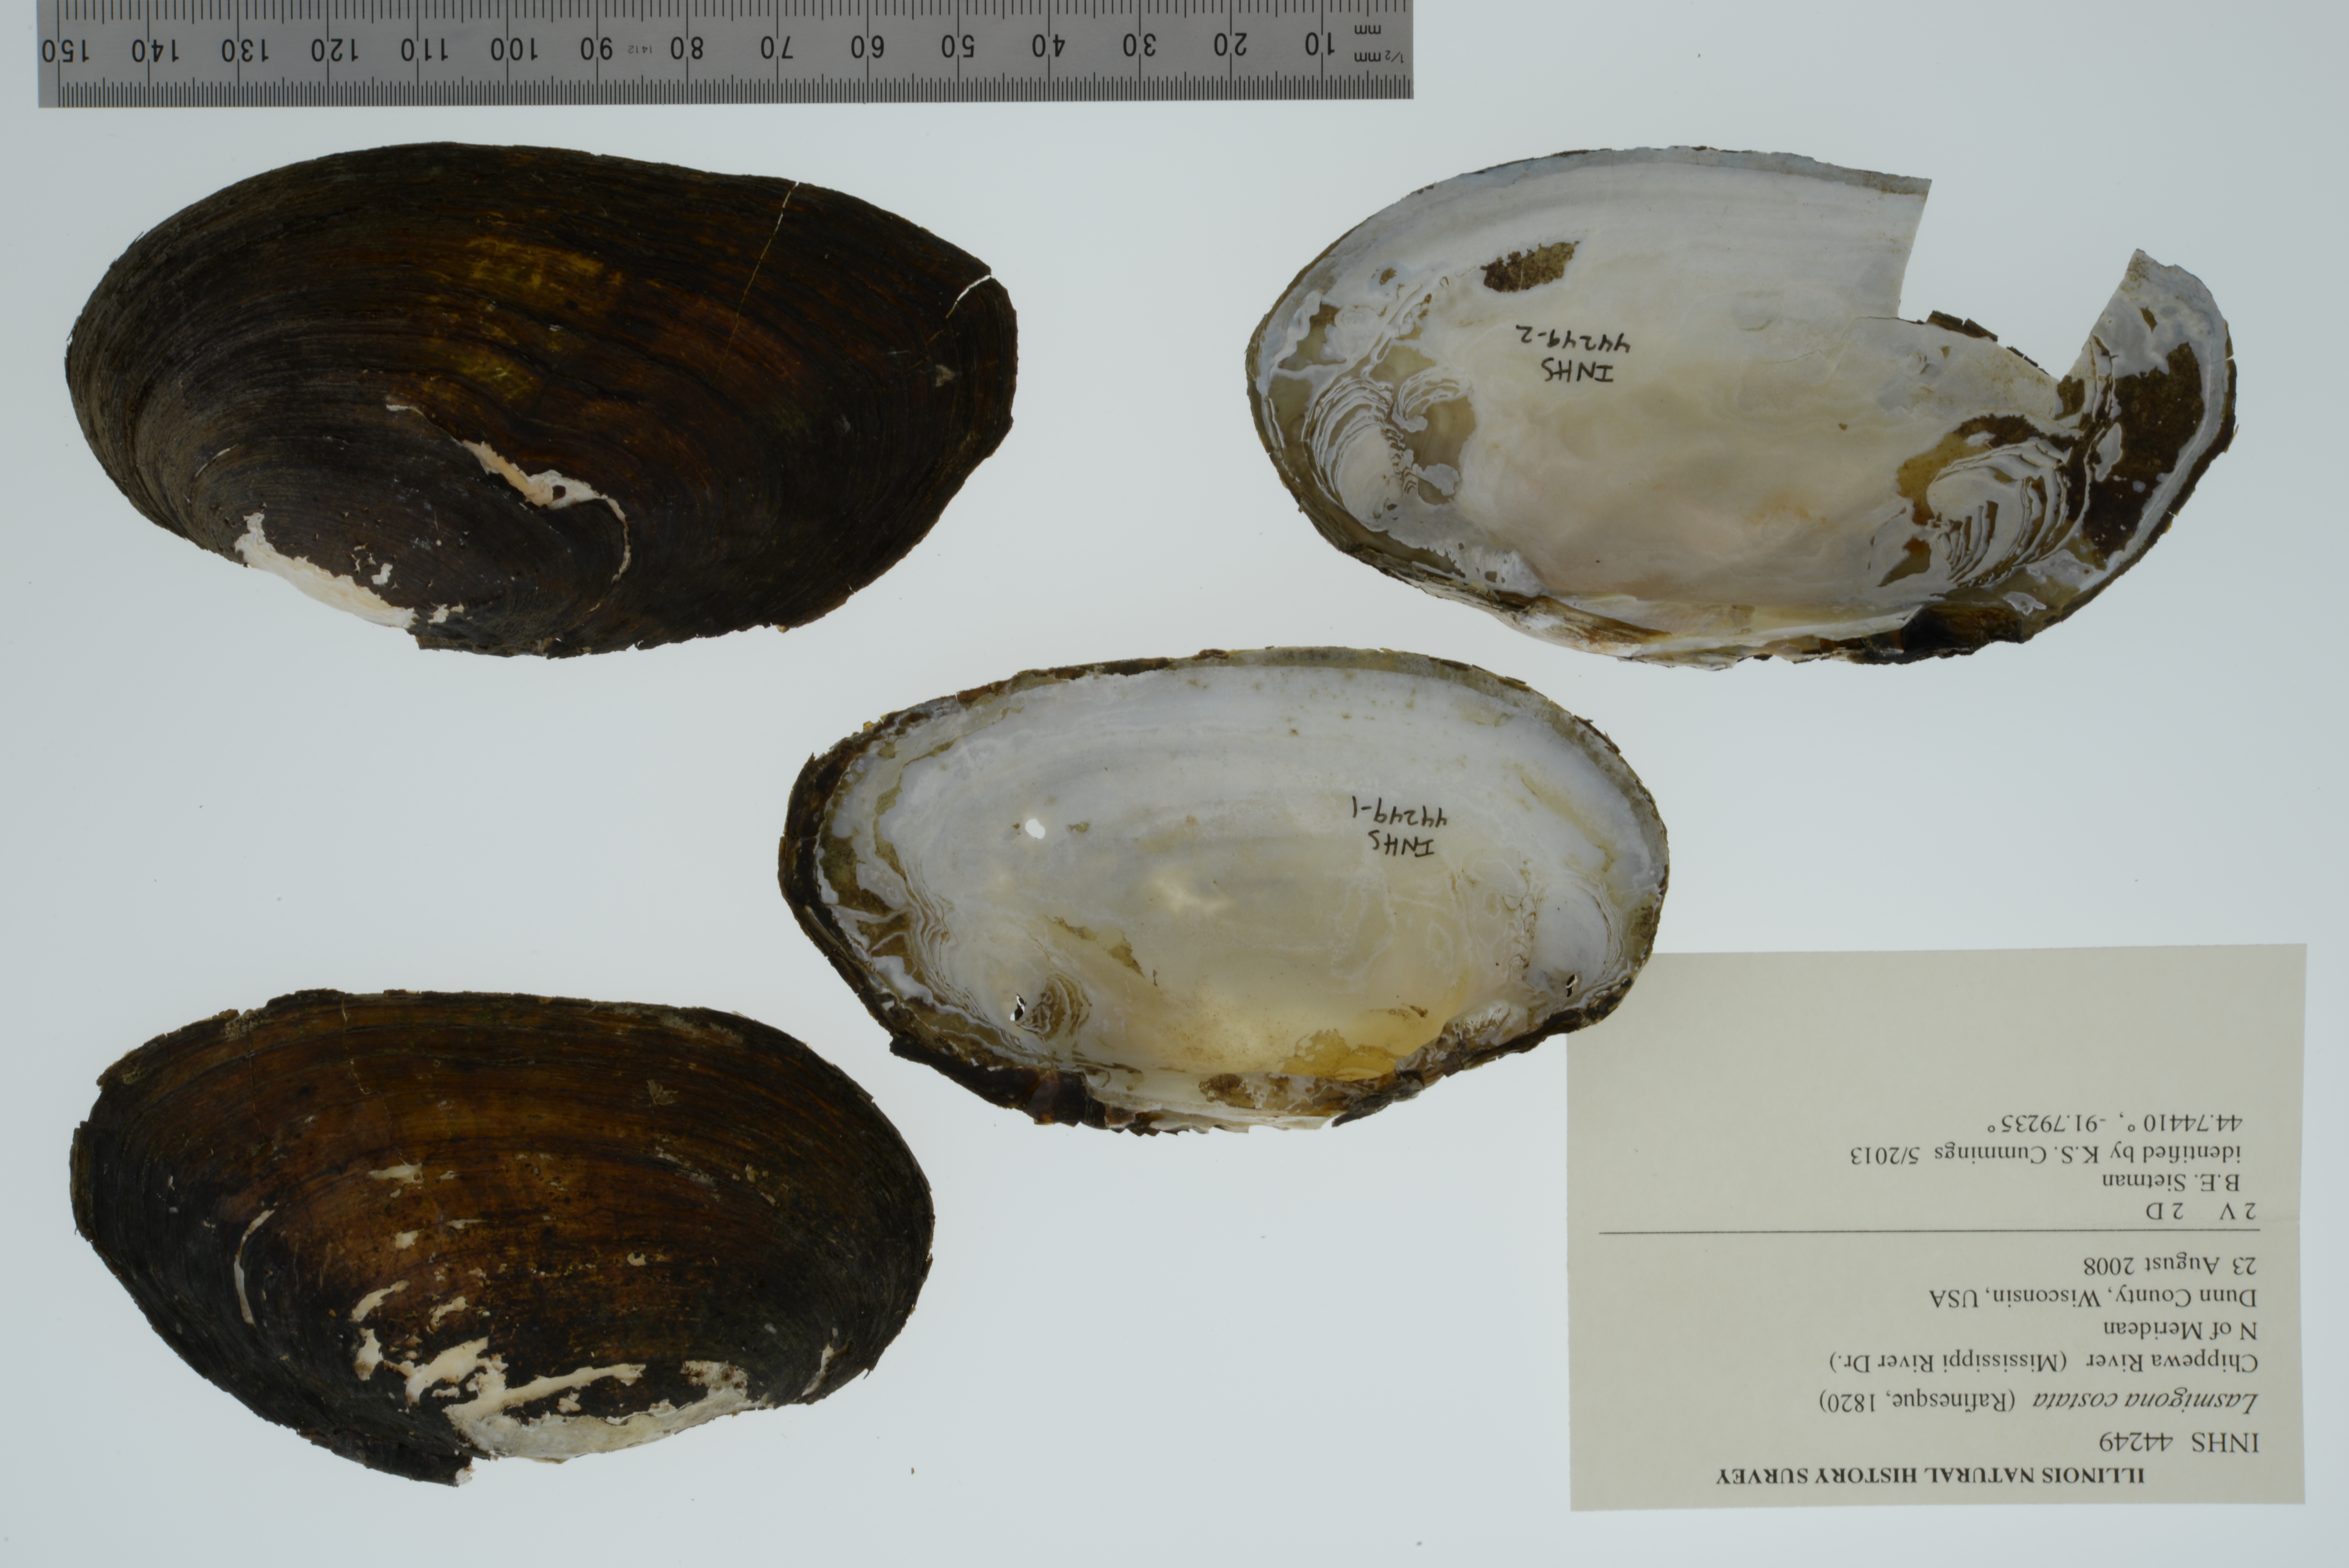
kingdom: Animalia
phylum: Mollusca
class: Bivalvia
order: Unionida
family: Unionidae
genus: Lasmigona
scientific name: Lasmigona costata
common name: Flutedshell
